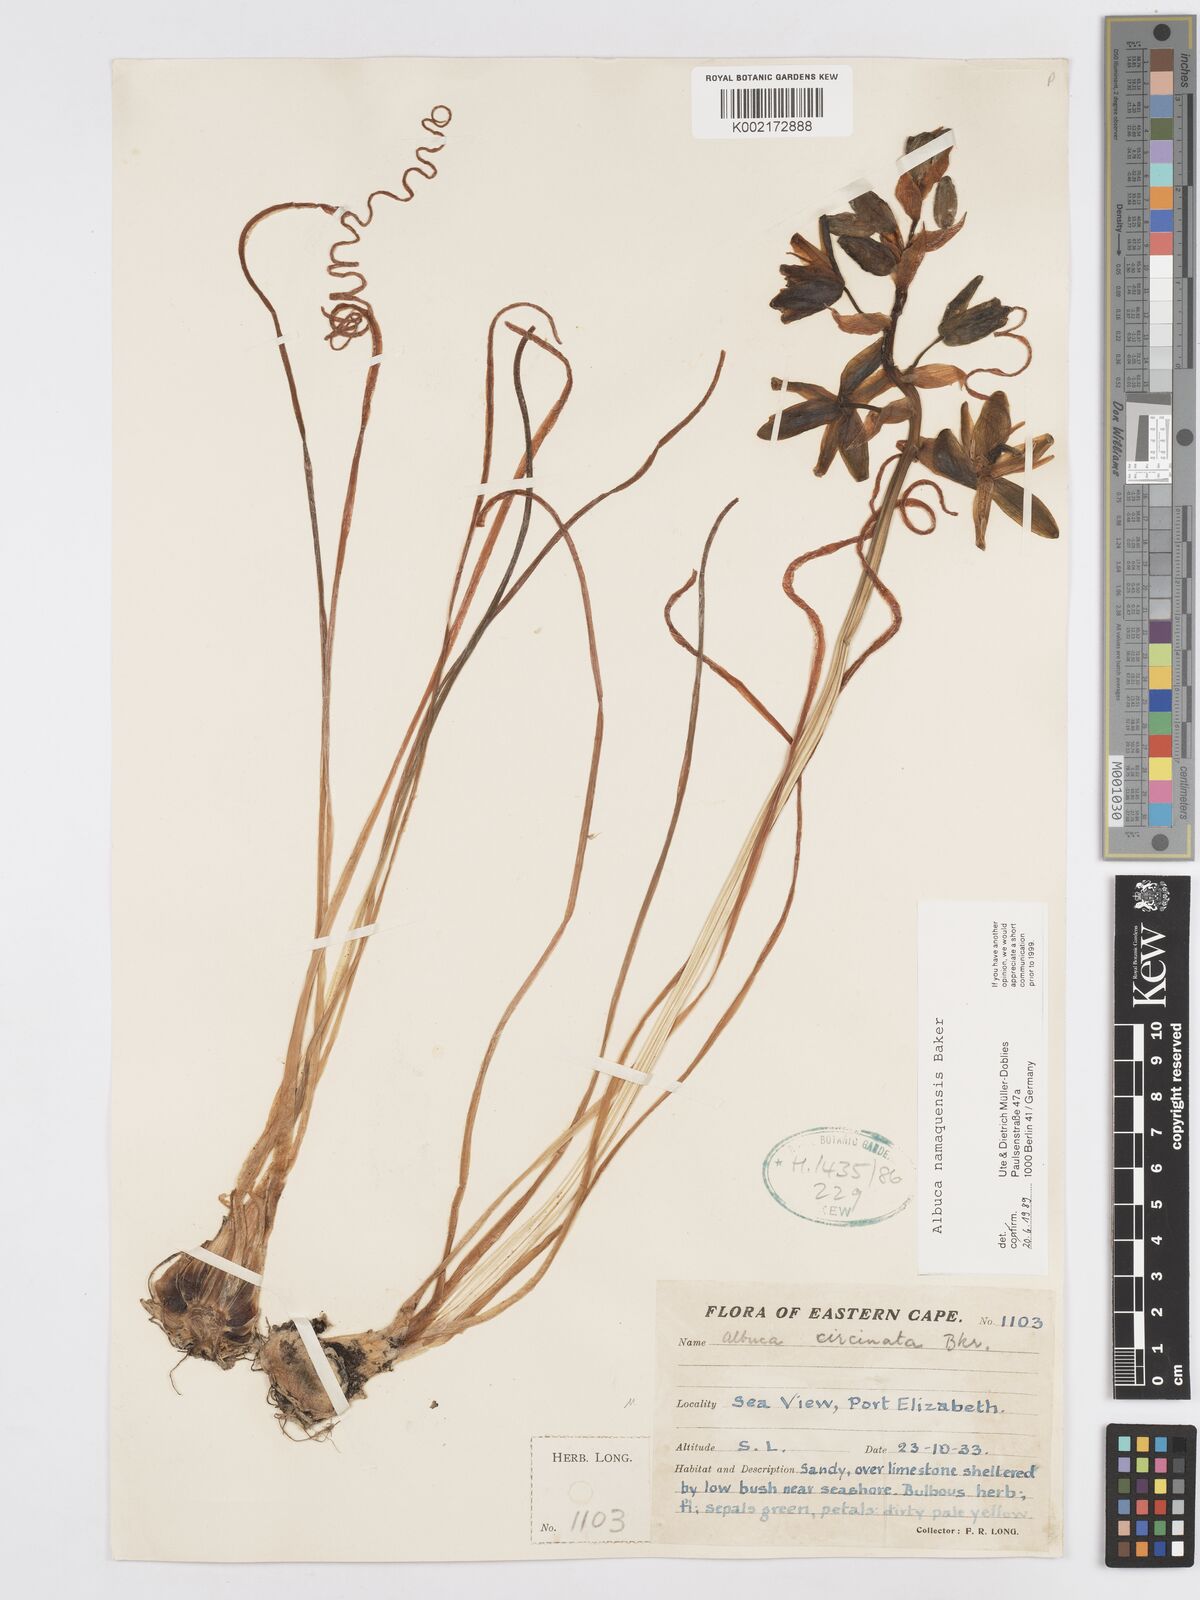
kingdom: Plantae
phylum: Tracheophyta
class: Liliopsida
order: Asparagales
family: Asparagaceae
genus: Albuca
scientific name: Albuca namaquensis
